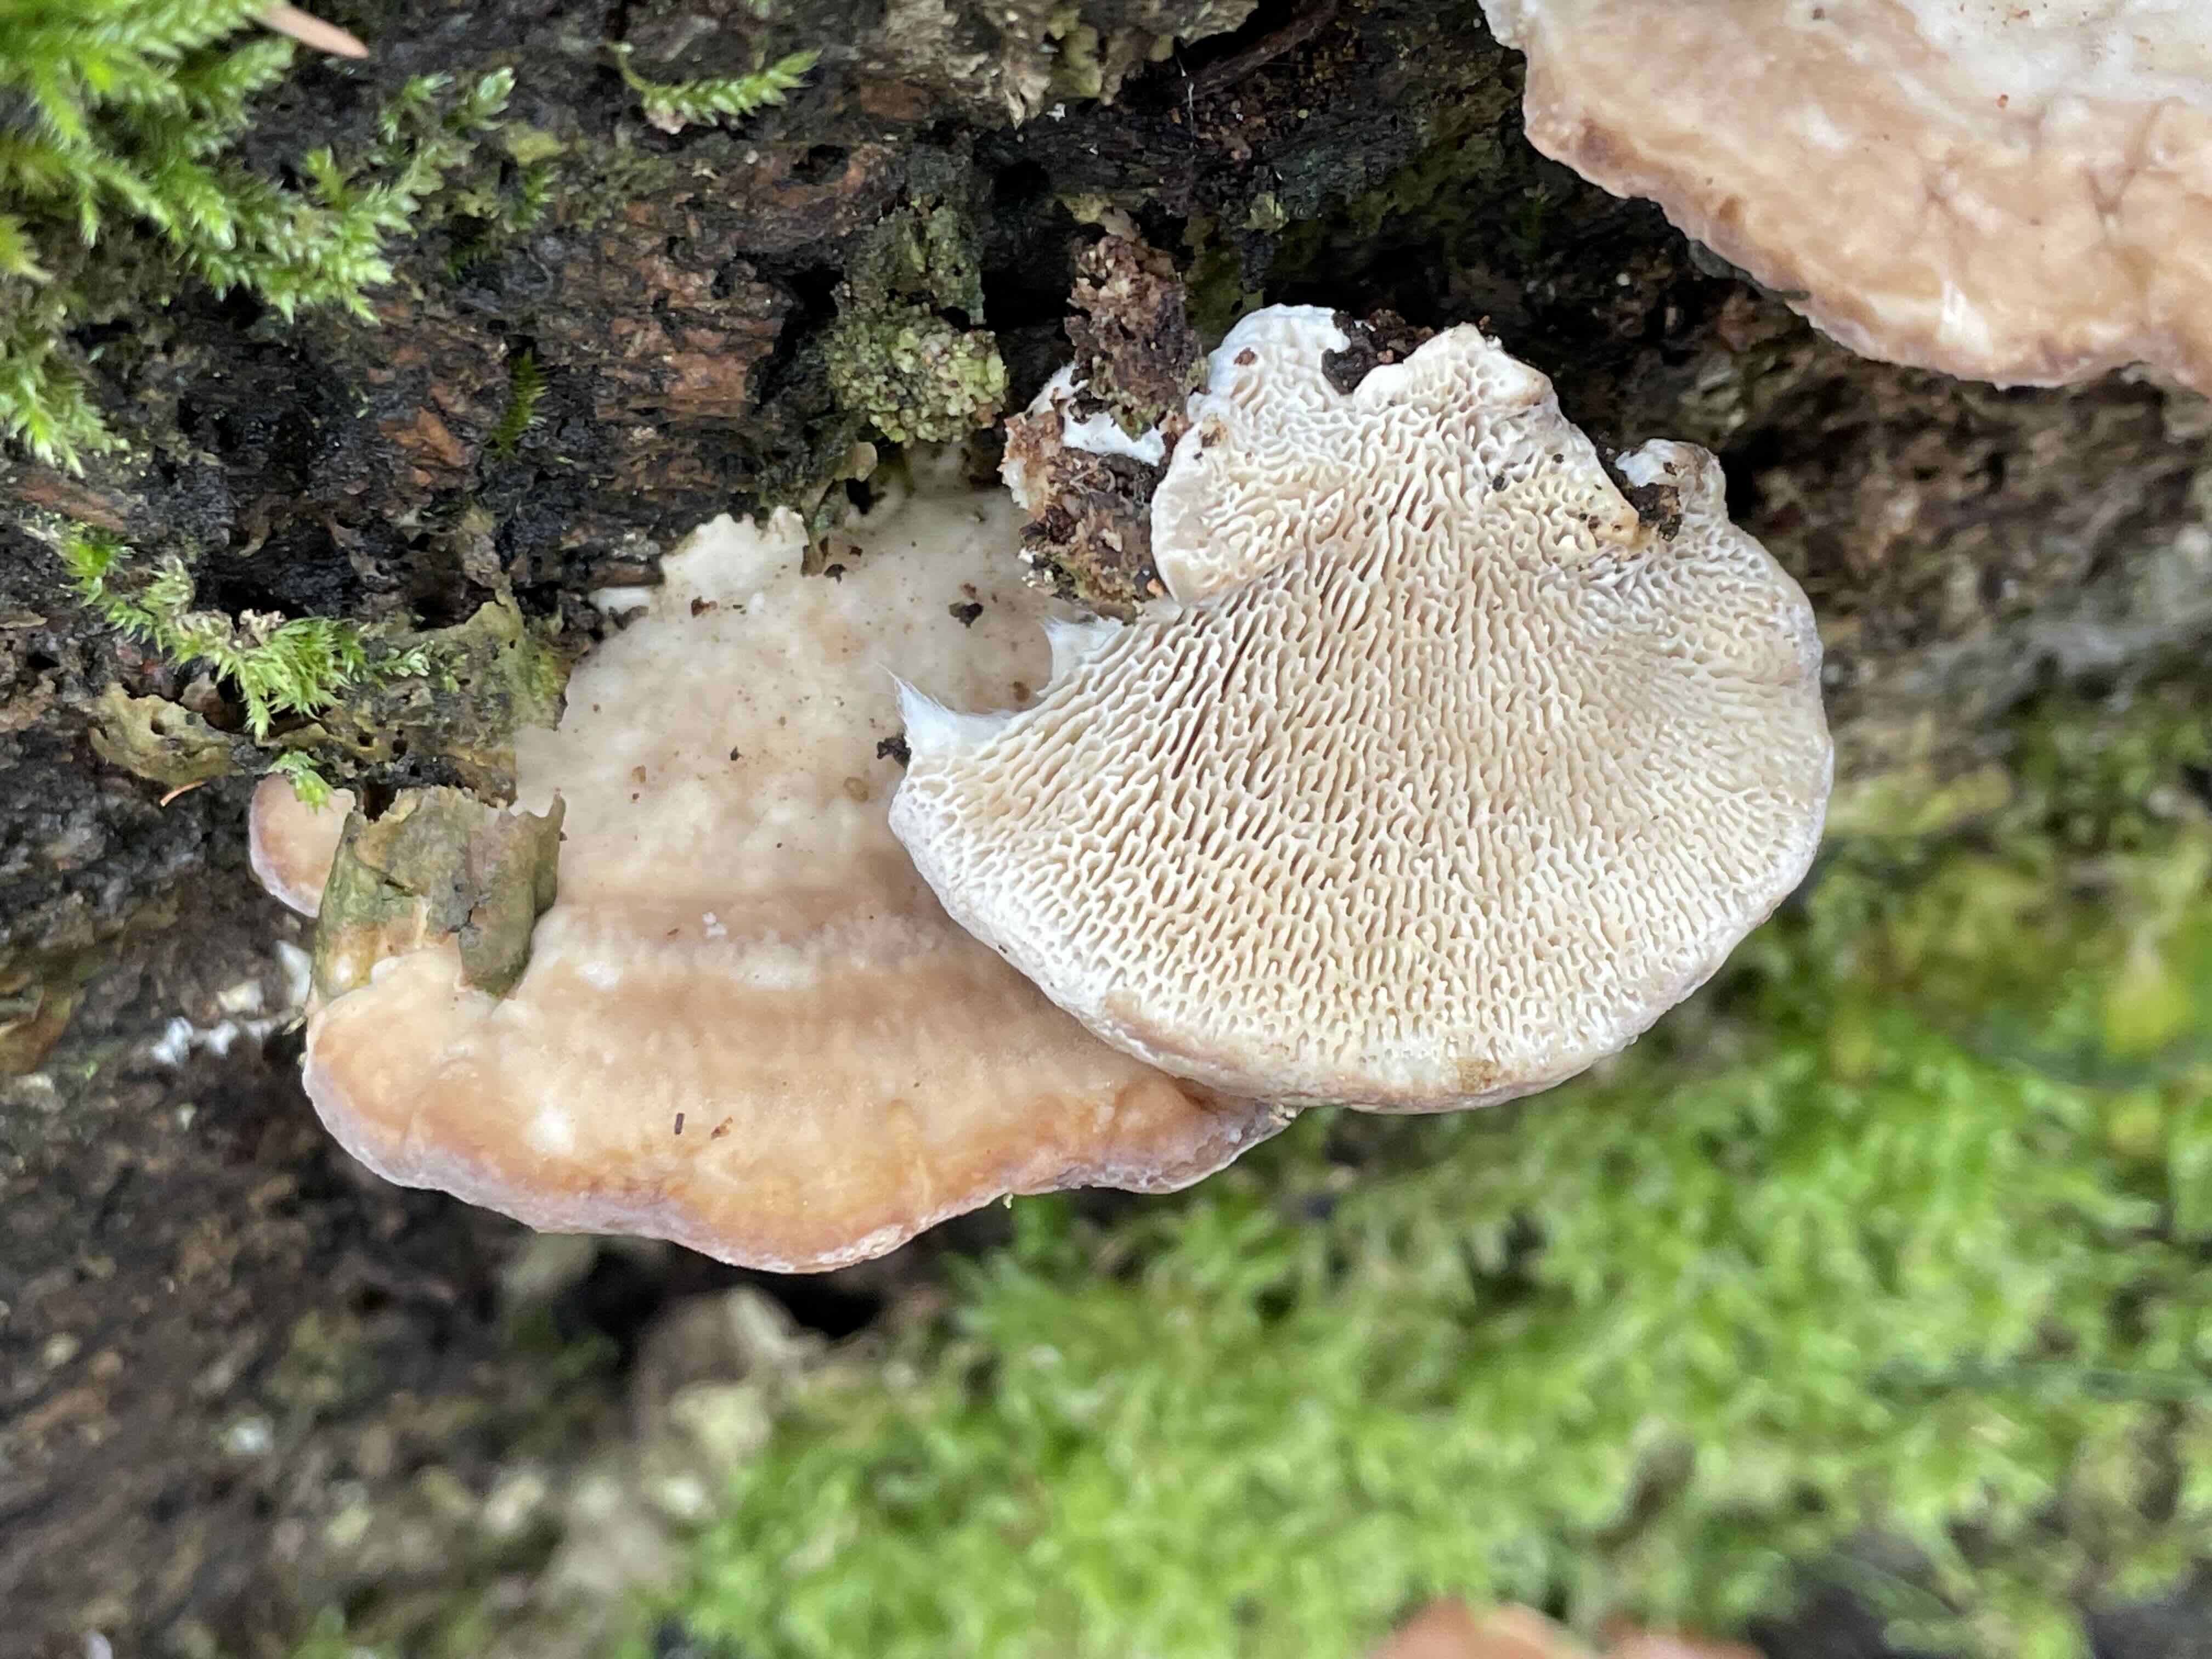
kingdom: Fungi
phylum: Basidiomycota
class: Agaricomycetes
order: Polyporales
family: Polyporaceae
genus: Trametes
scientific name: Trametes gibbosa
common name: puklet læderporesvamp
